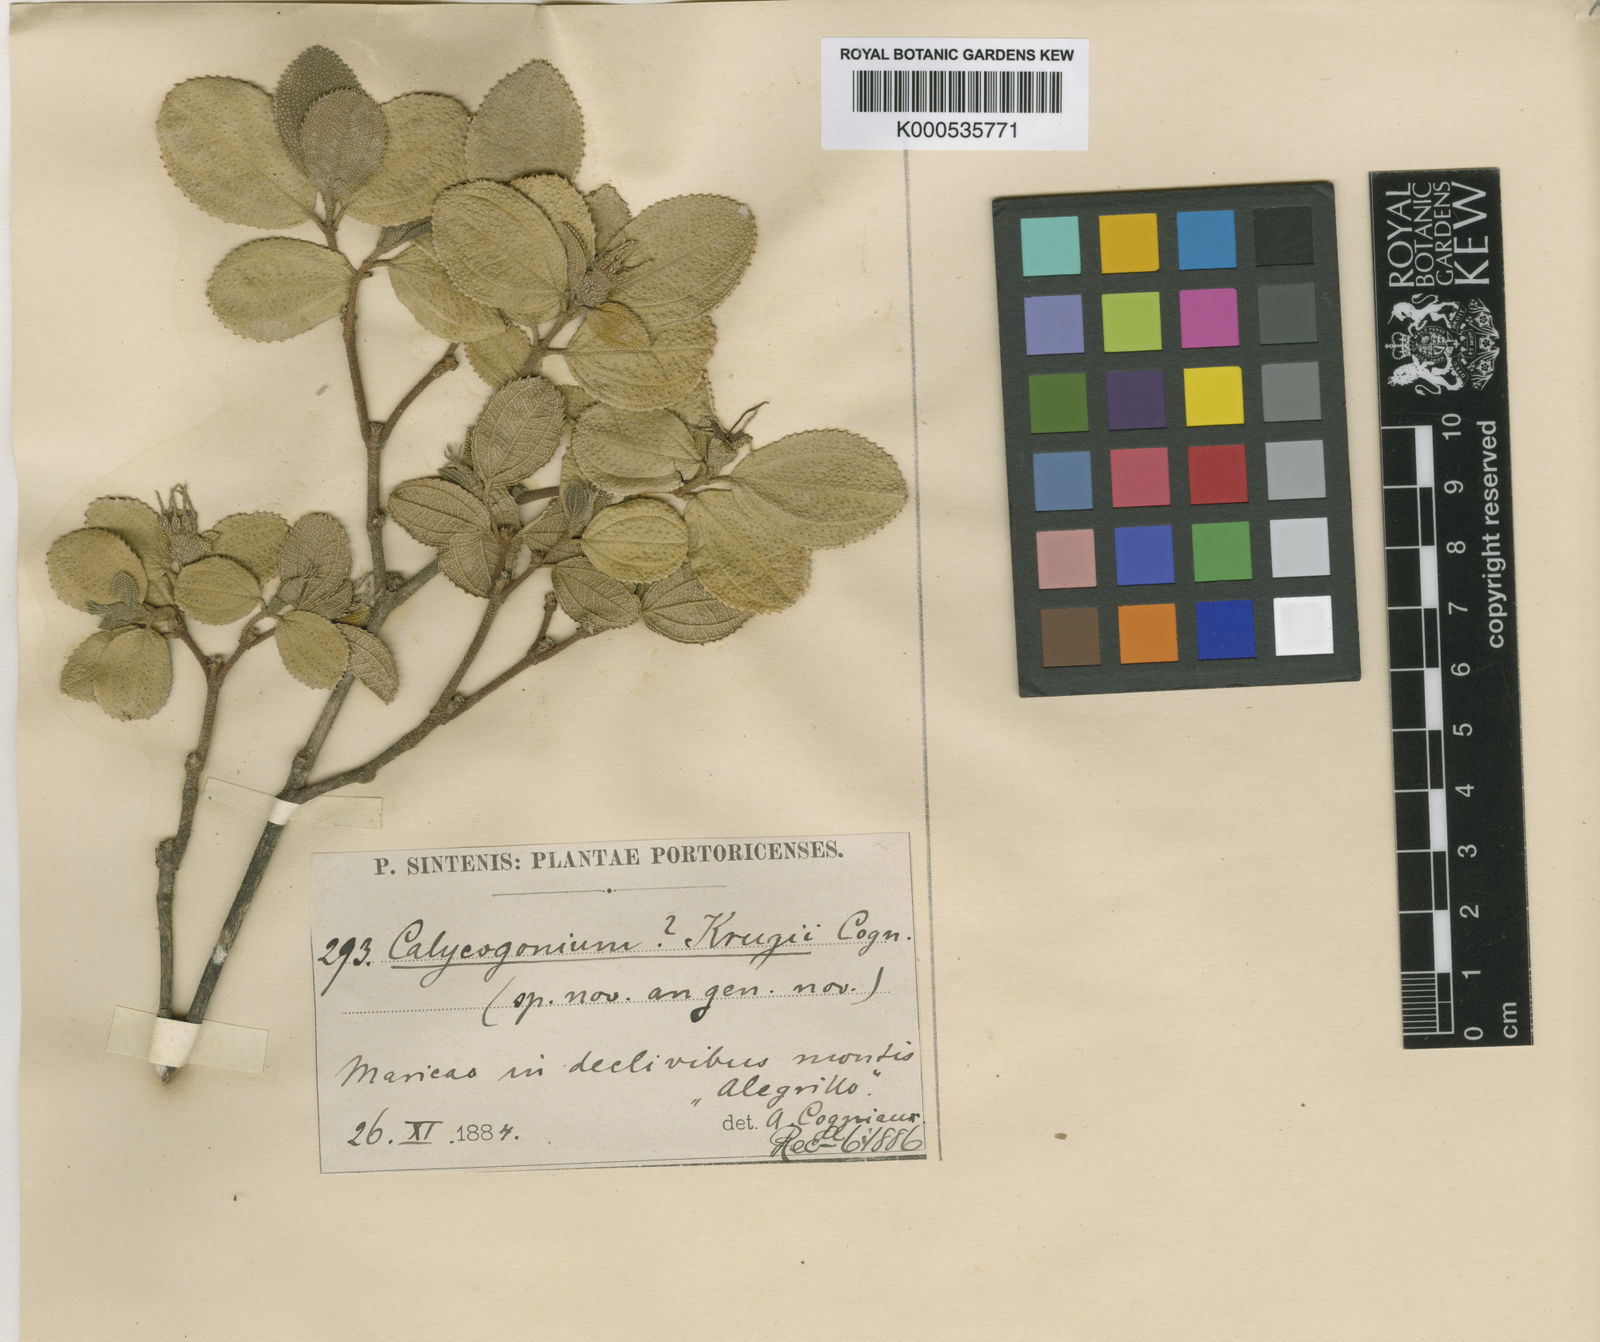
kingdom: Plantae
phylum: Tracheophyta
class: Magnoliopsida
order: Myrtales
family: Melastomataceae
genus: Miconia
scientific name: Miconia karlkrugii
